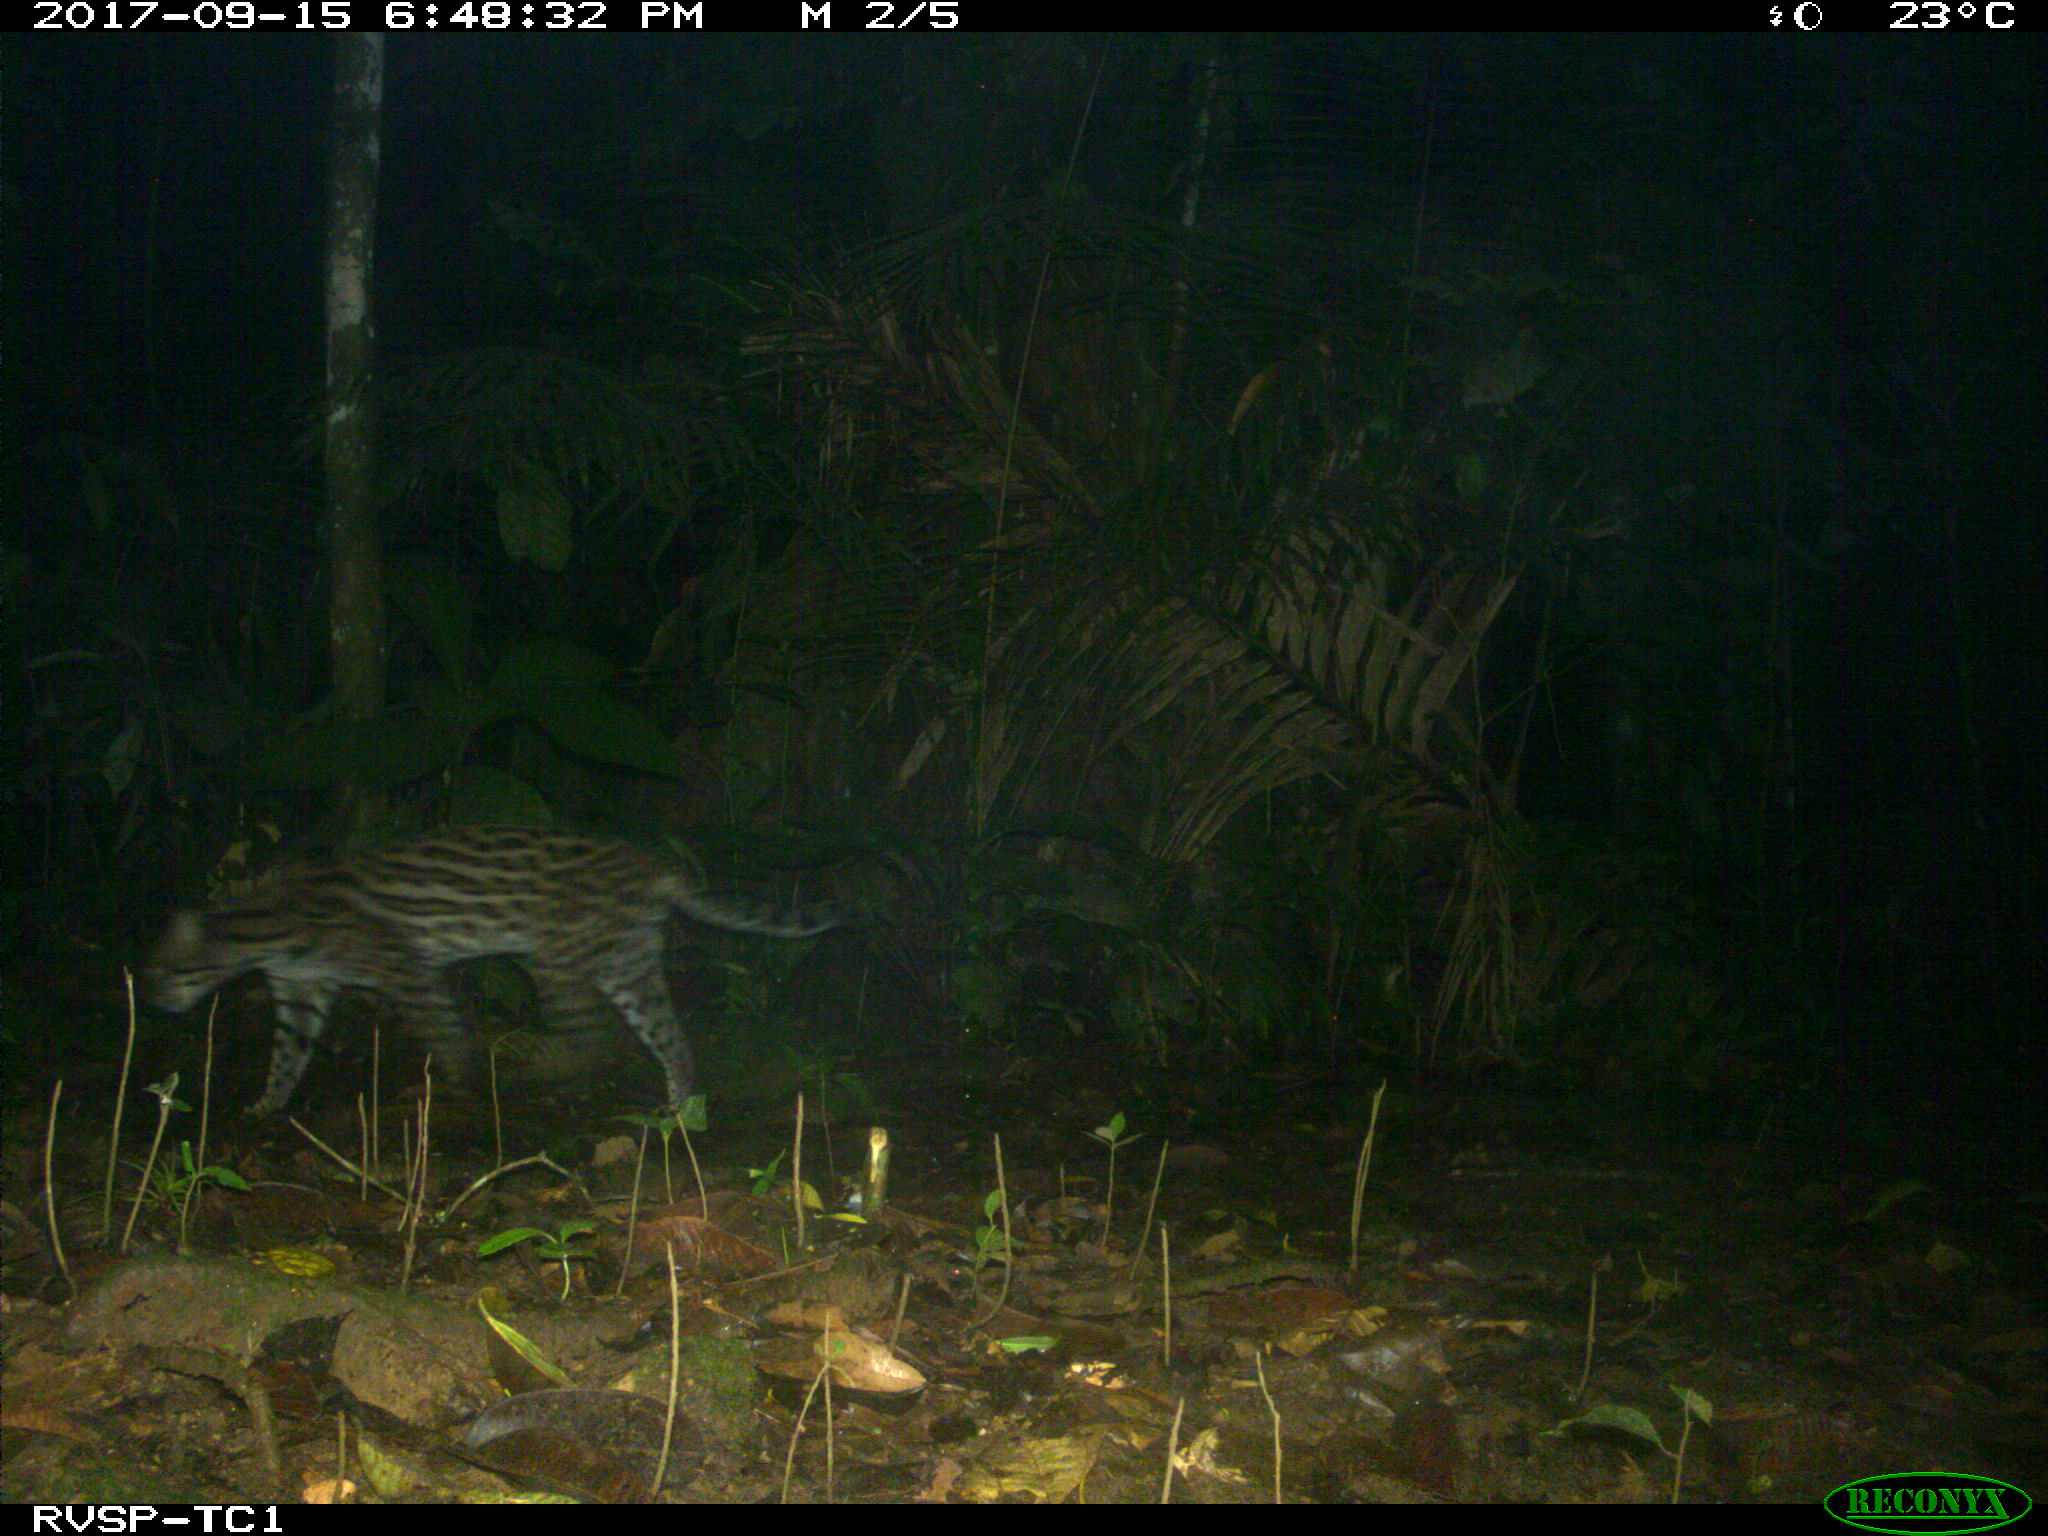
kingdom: Animalia
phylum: Chordata
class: Mammalia
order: Carnivora
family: Felidae
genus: Leopardus
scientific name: Leopardus pardalis
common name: Ocelot
